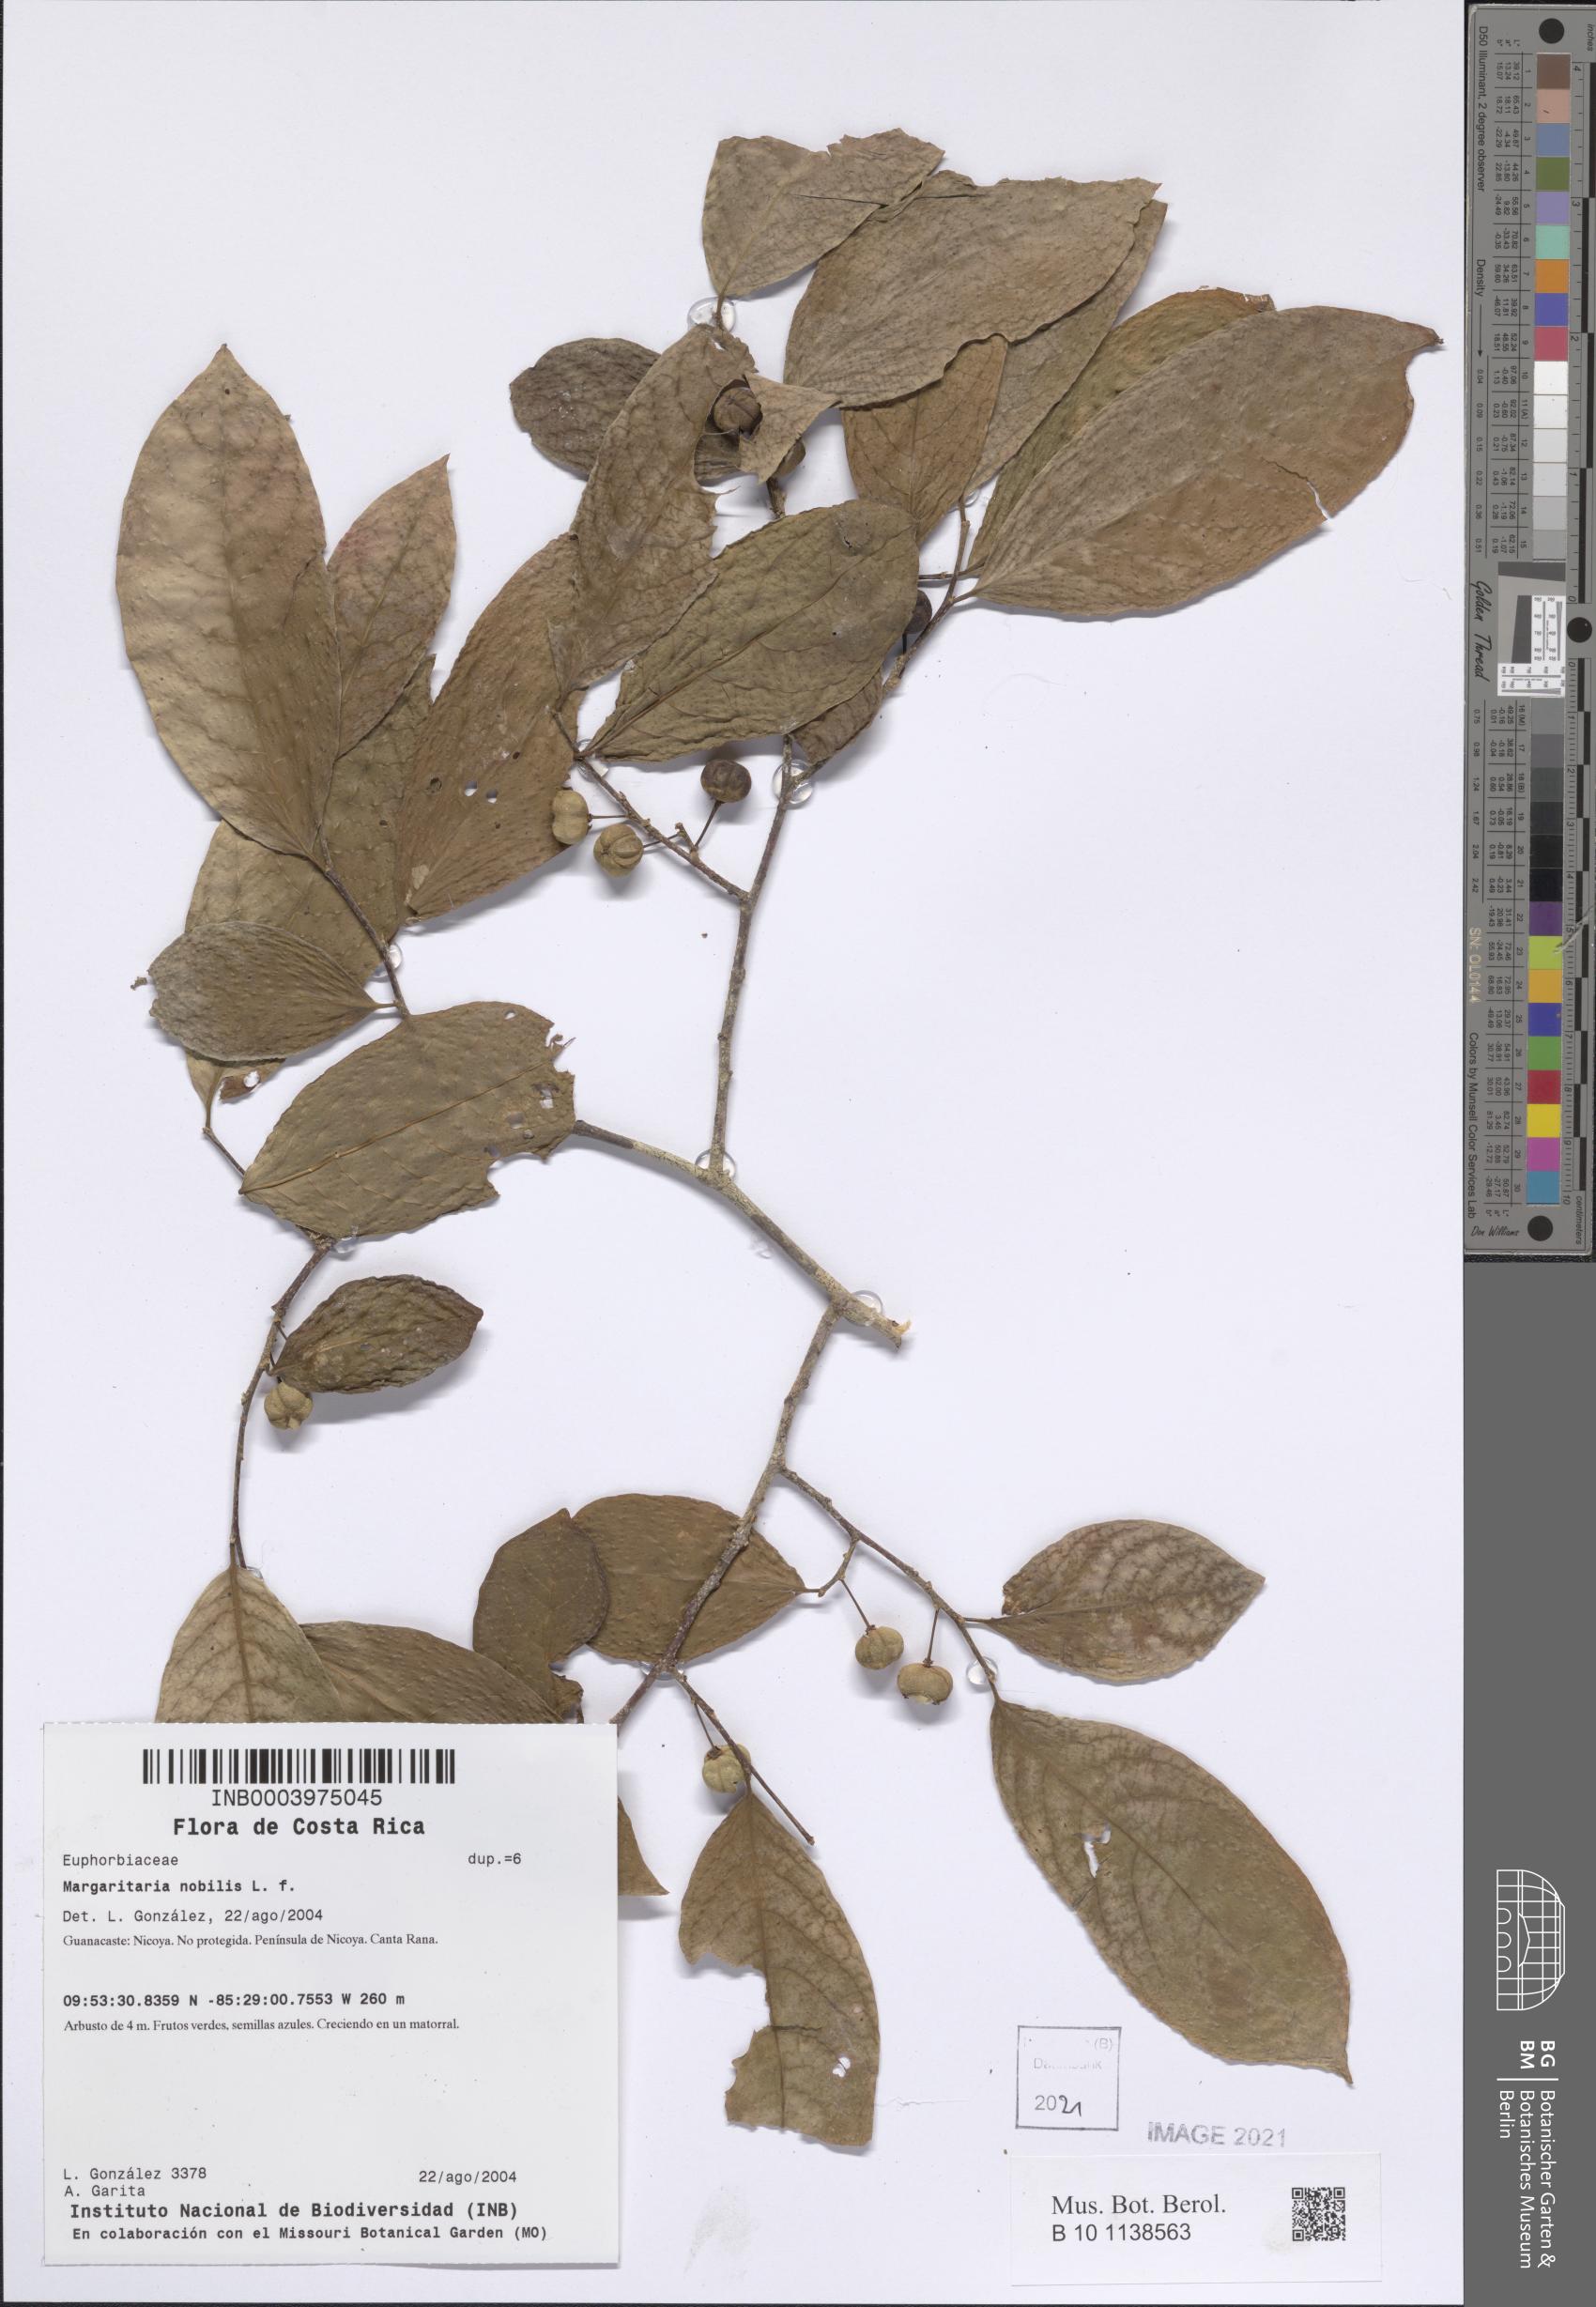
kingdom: Plantae
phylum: Tracheophyta
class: Magnoliopsida
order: Malpighiales
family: Phyllanthaceae
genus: Margaritaria
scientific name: Margaritaria nobilis
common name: Goose berry
